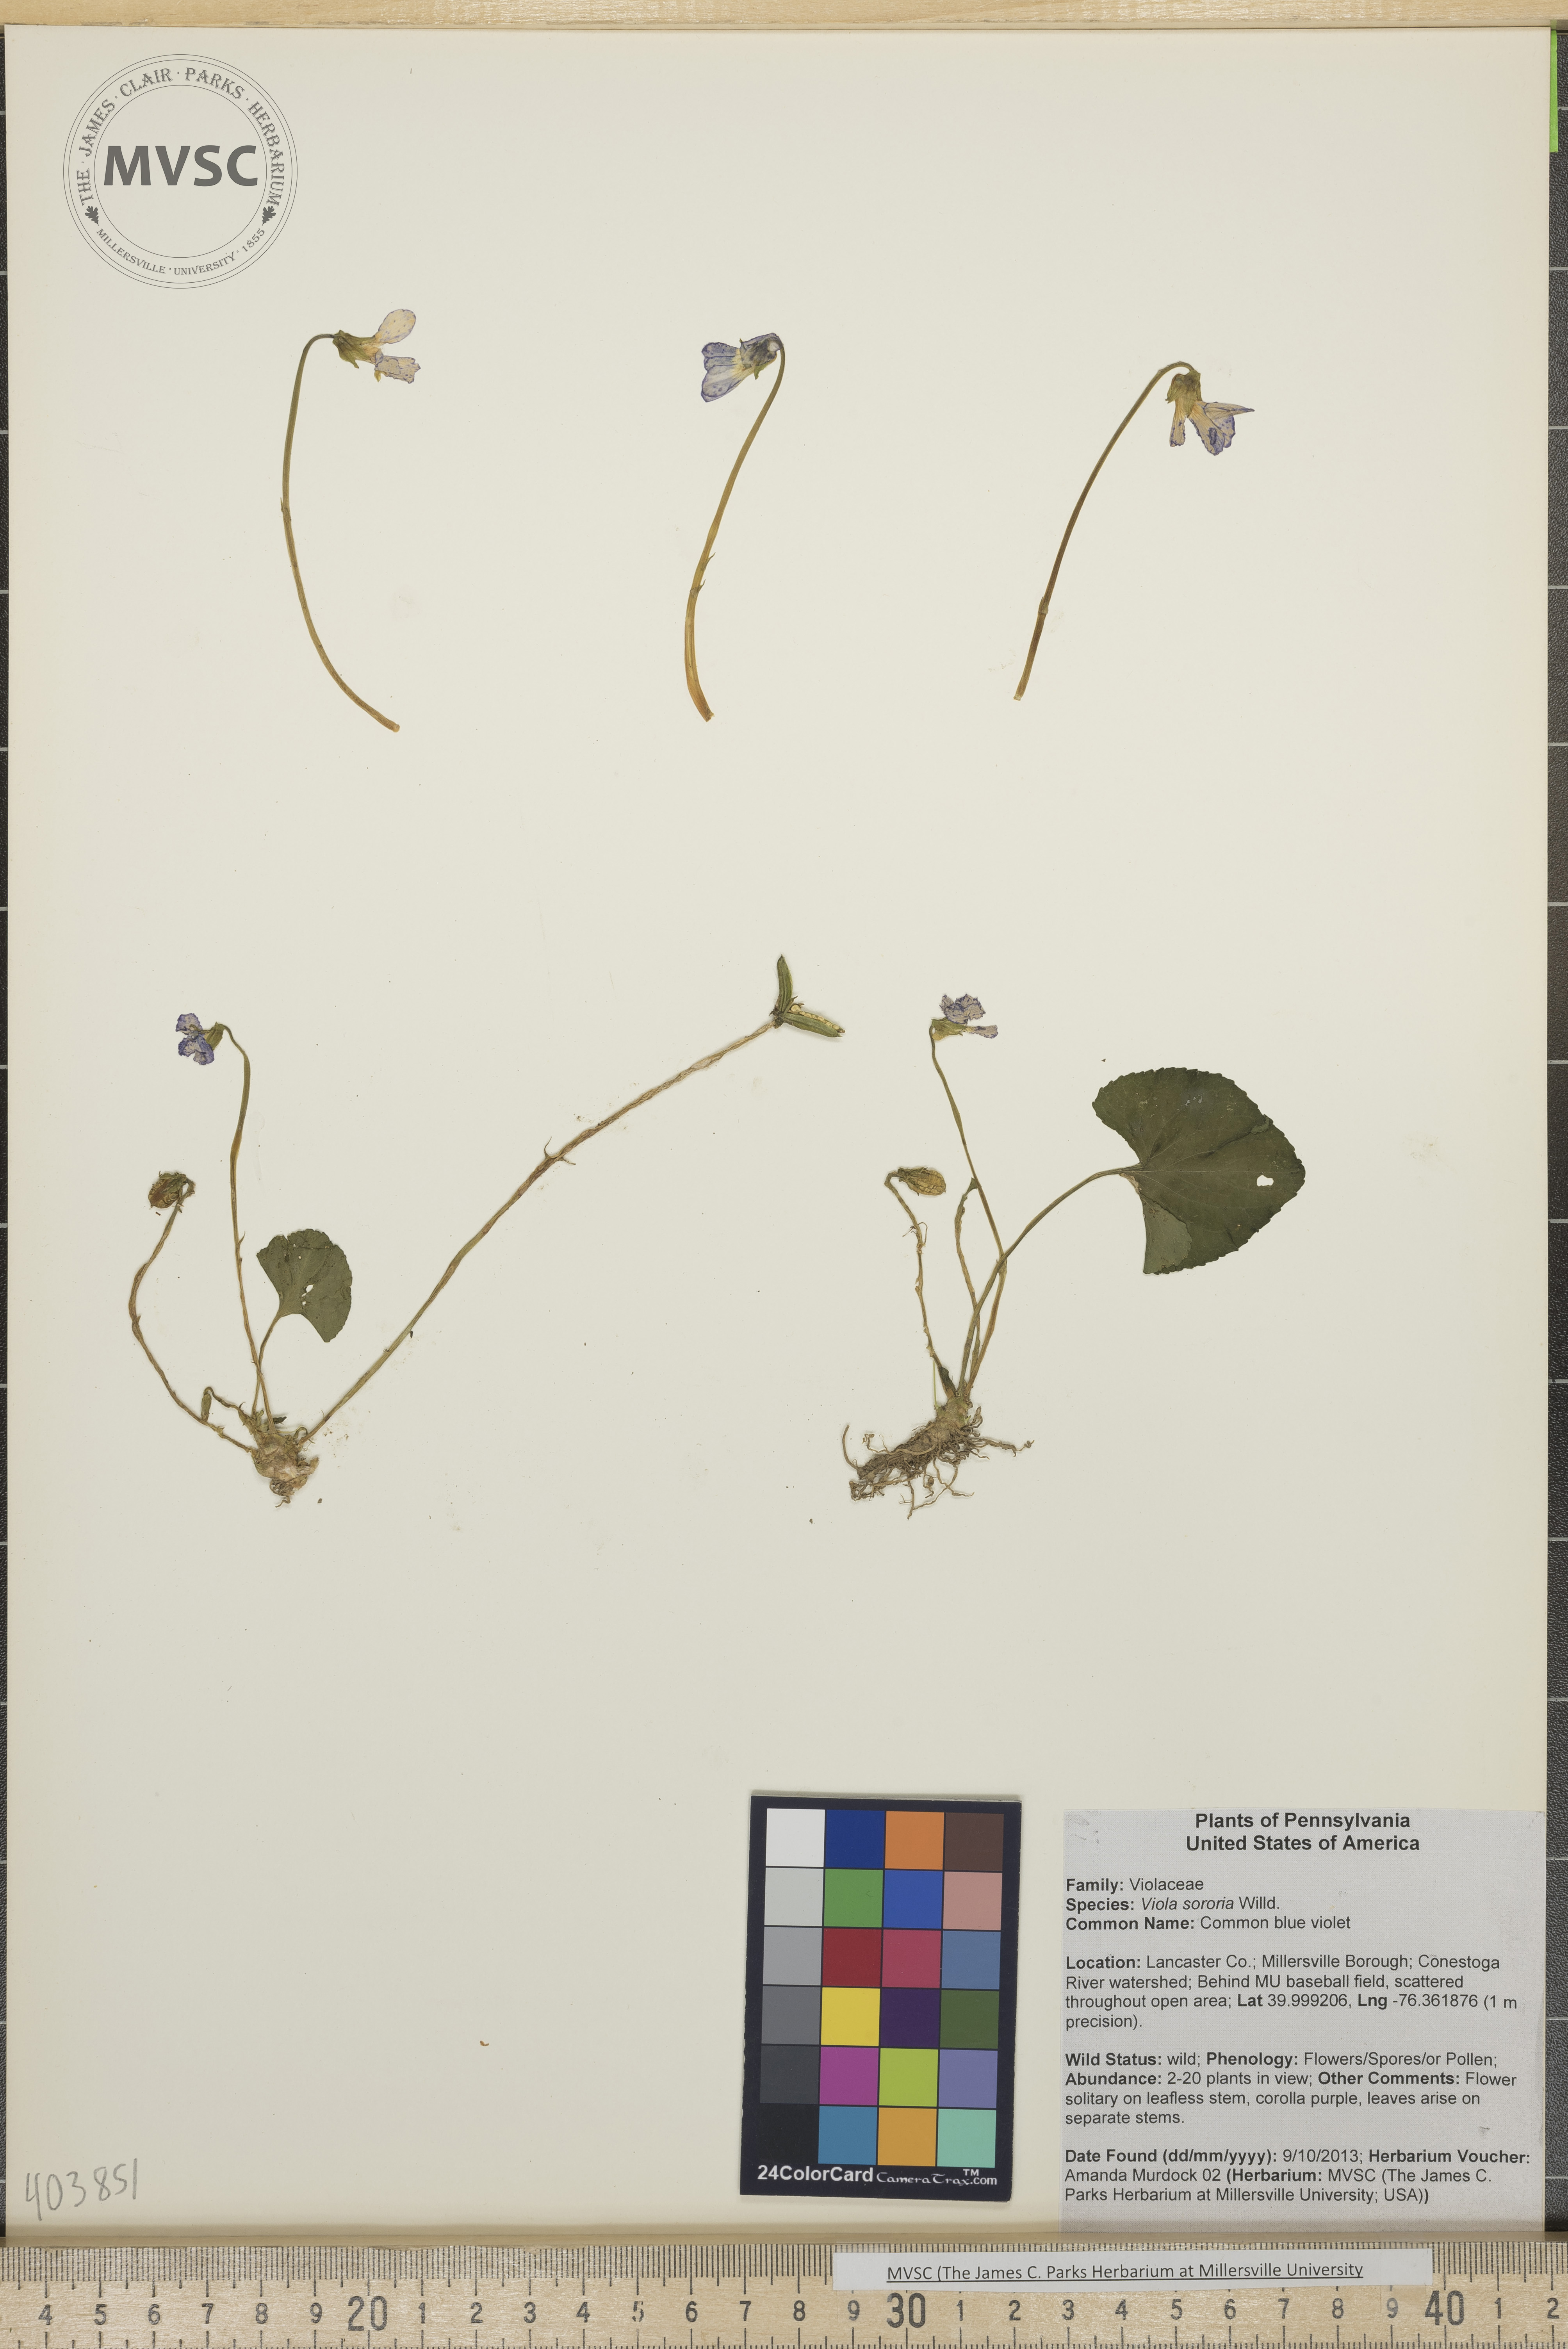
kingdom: Plantae
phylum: Tracheophyta
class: Magnoliopsida
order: Malpighiales
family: Violaceae
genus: Viola
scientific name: Viola sororia
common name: Common blue violet
